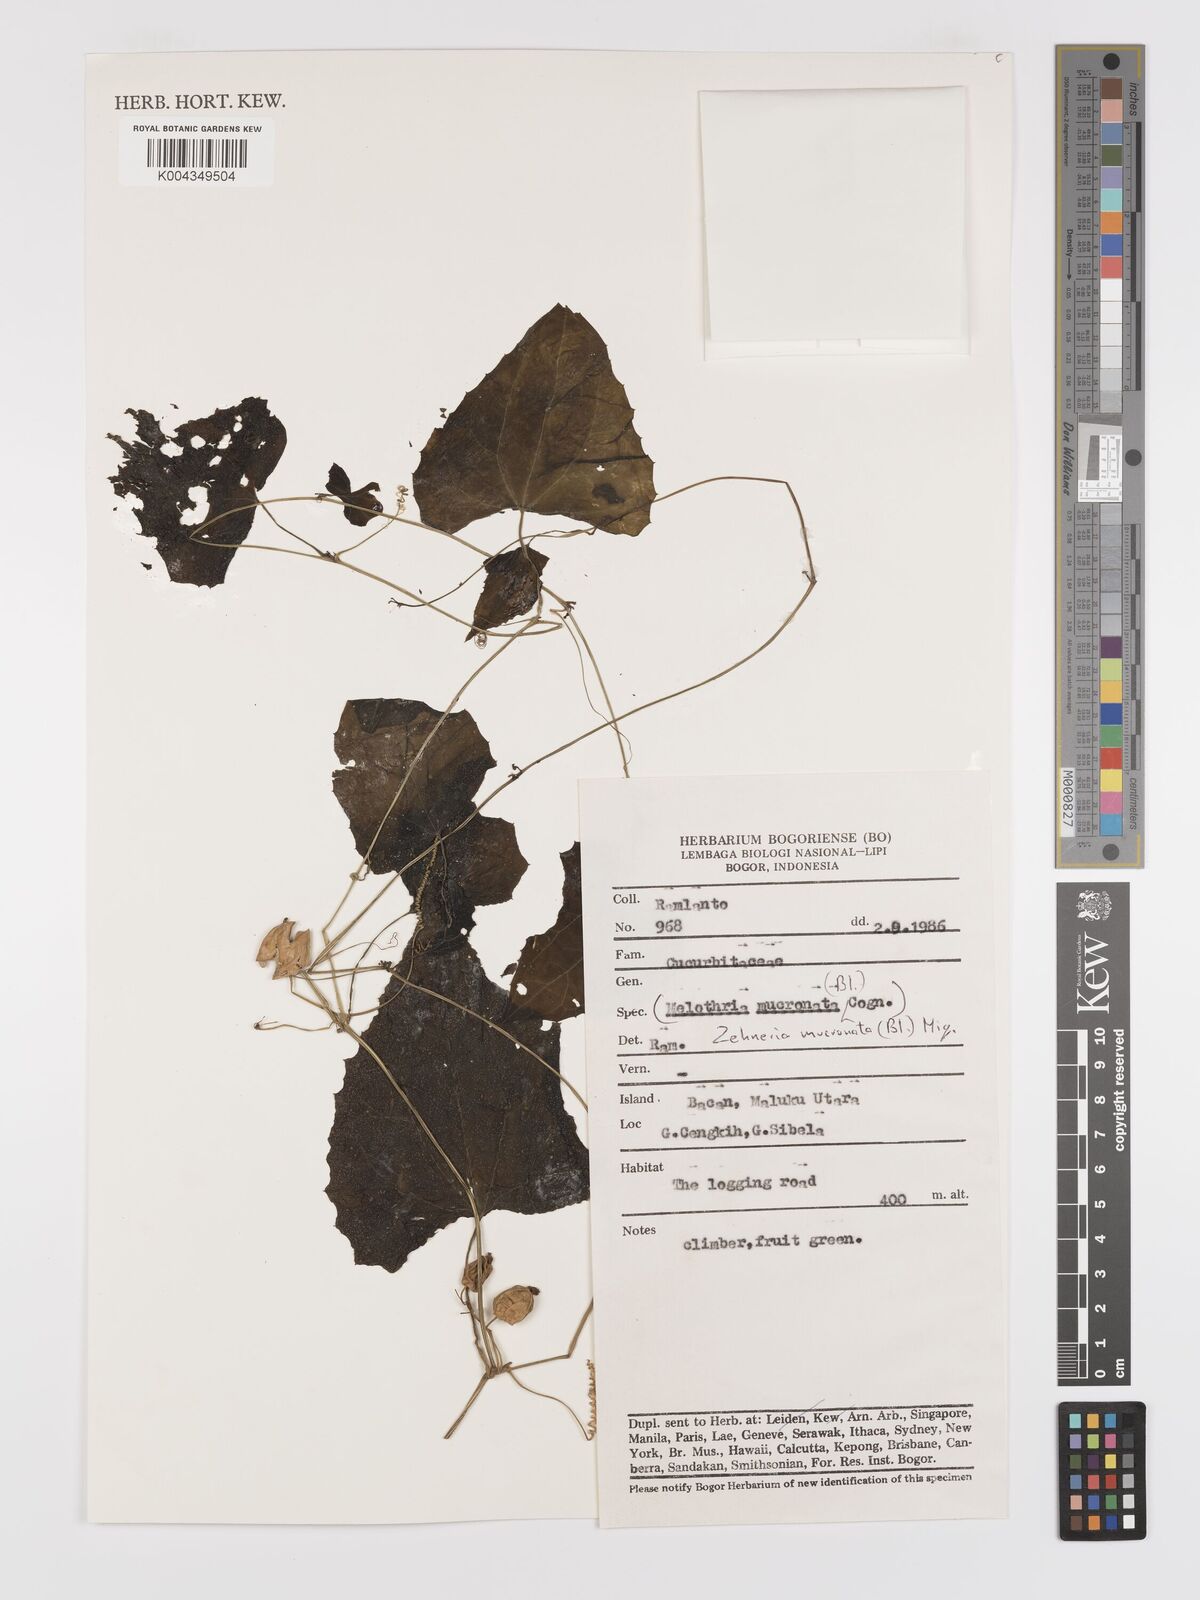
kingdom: Plantae
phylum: Tracheophyta
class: Magnoliopsida
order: Cucurbitales
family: Cucurbitaceae
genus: Zehneria
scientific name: Zehneria mucronata
